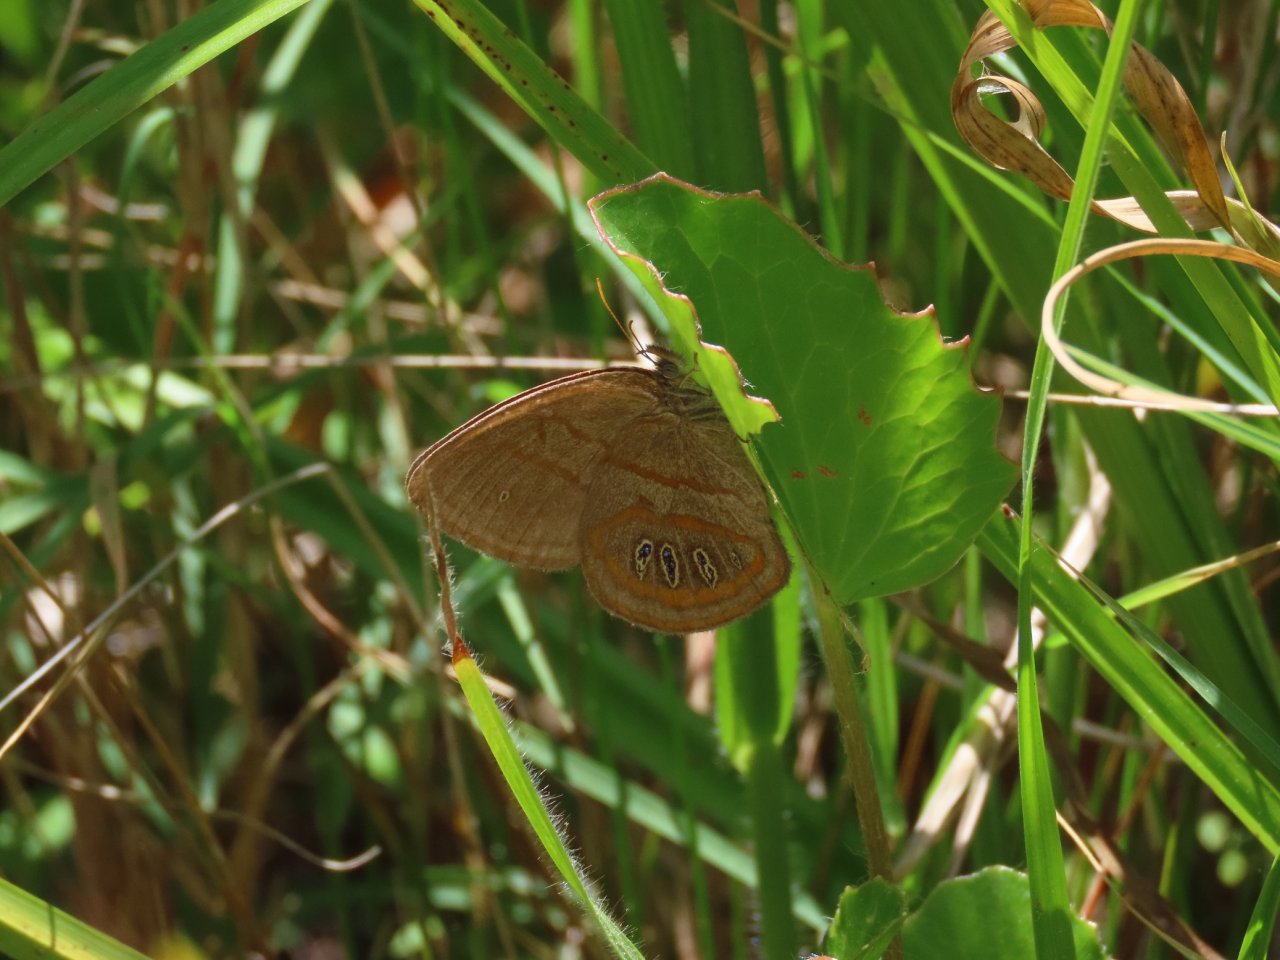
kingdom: Animalia
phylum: Arthropoda
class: Insecta
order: Lepidoptera
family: Nymphalidae
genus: Euptychia
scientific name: Euptychia phocion
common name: Georgia Satyr
